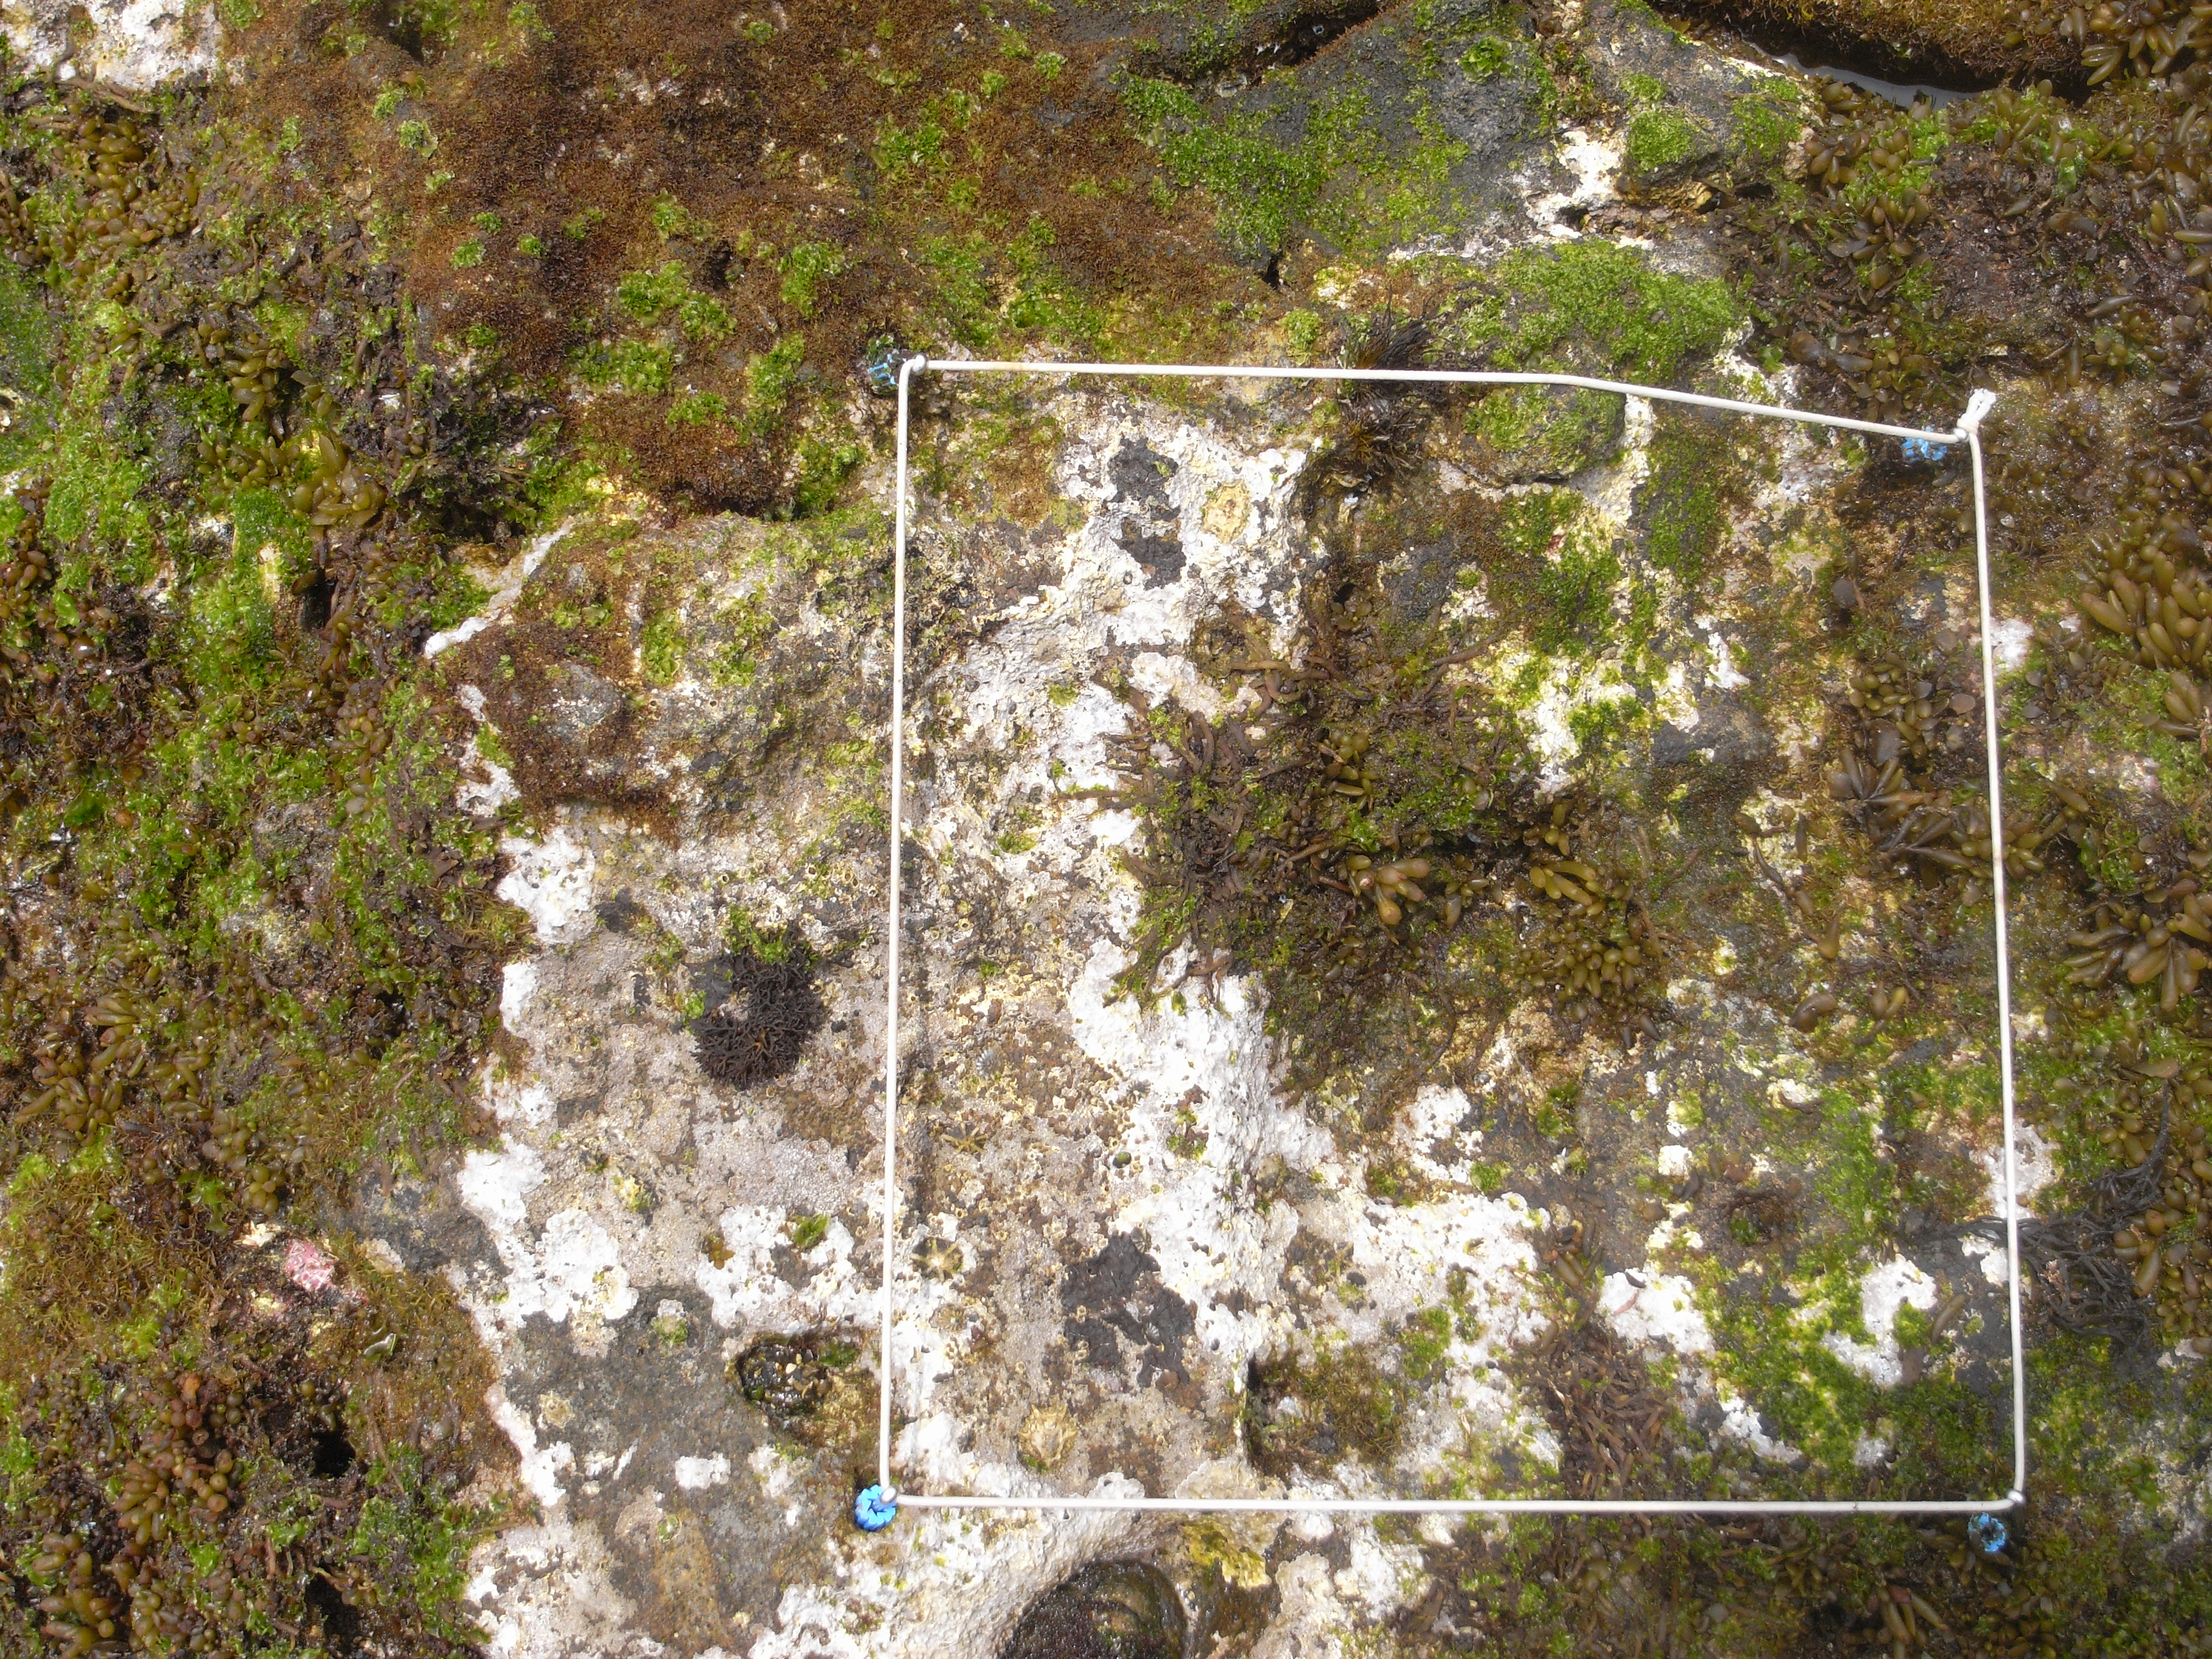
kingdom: Chromista
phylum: Ochrophyta
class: Phaeophyceae
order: Fucales
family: Sargassaceae
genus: Sargassum
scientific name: Sargassum fusiforme
